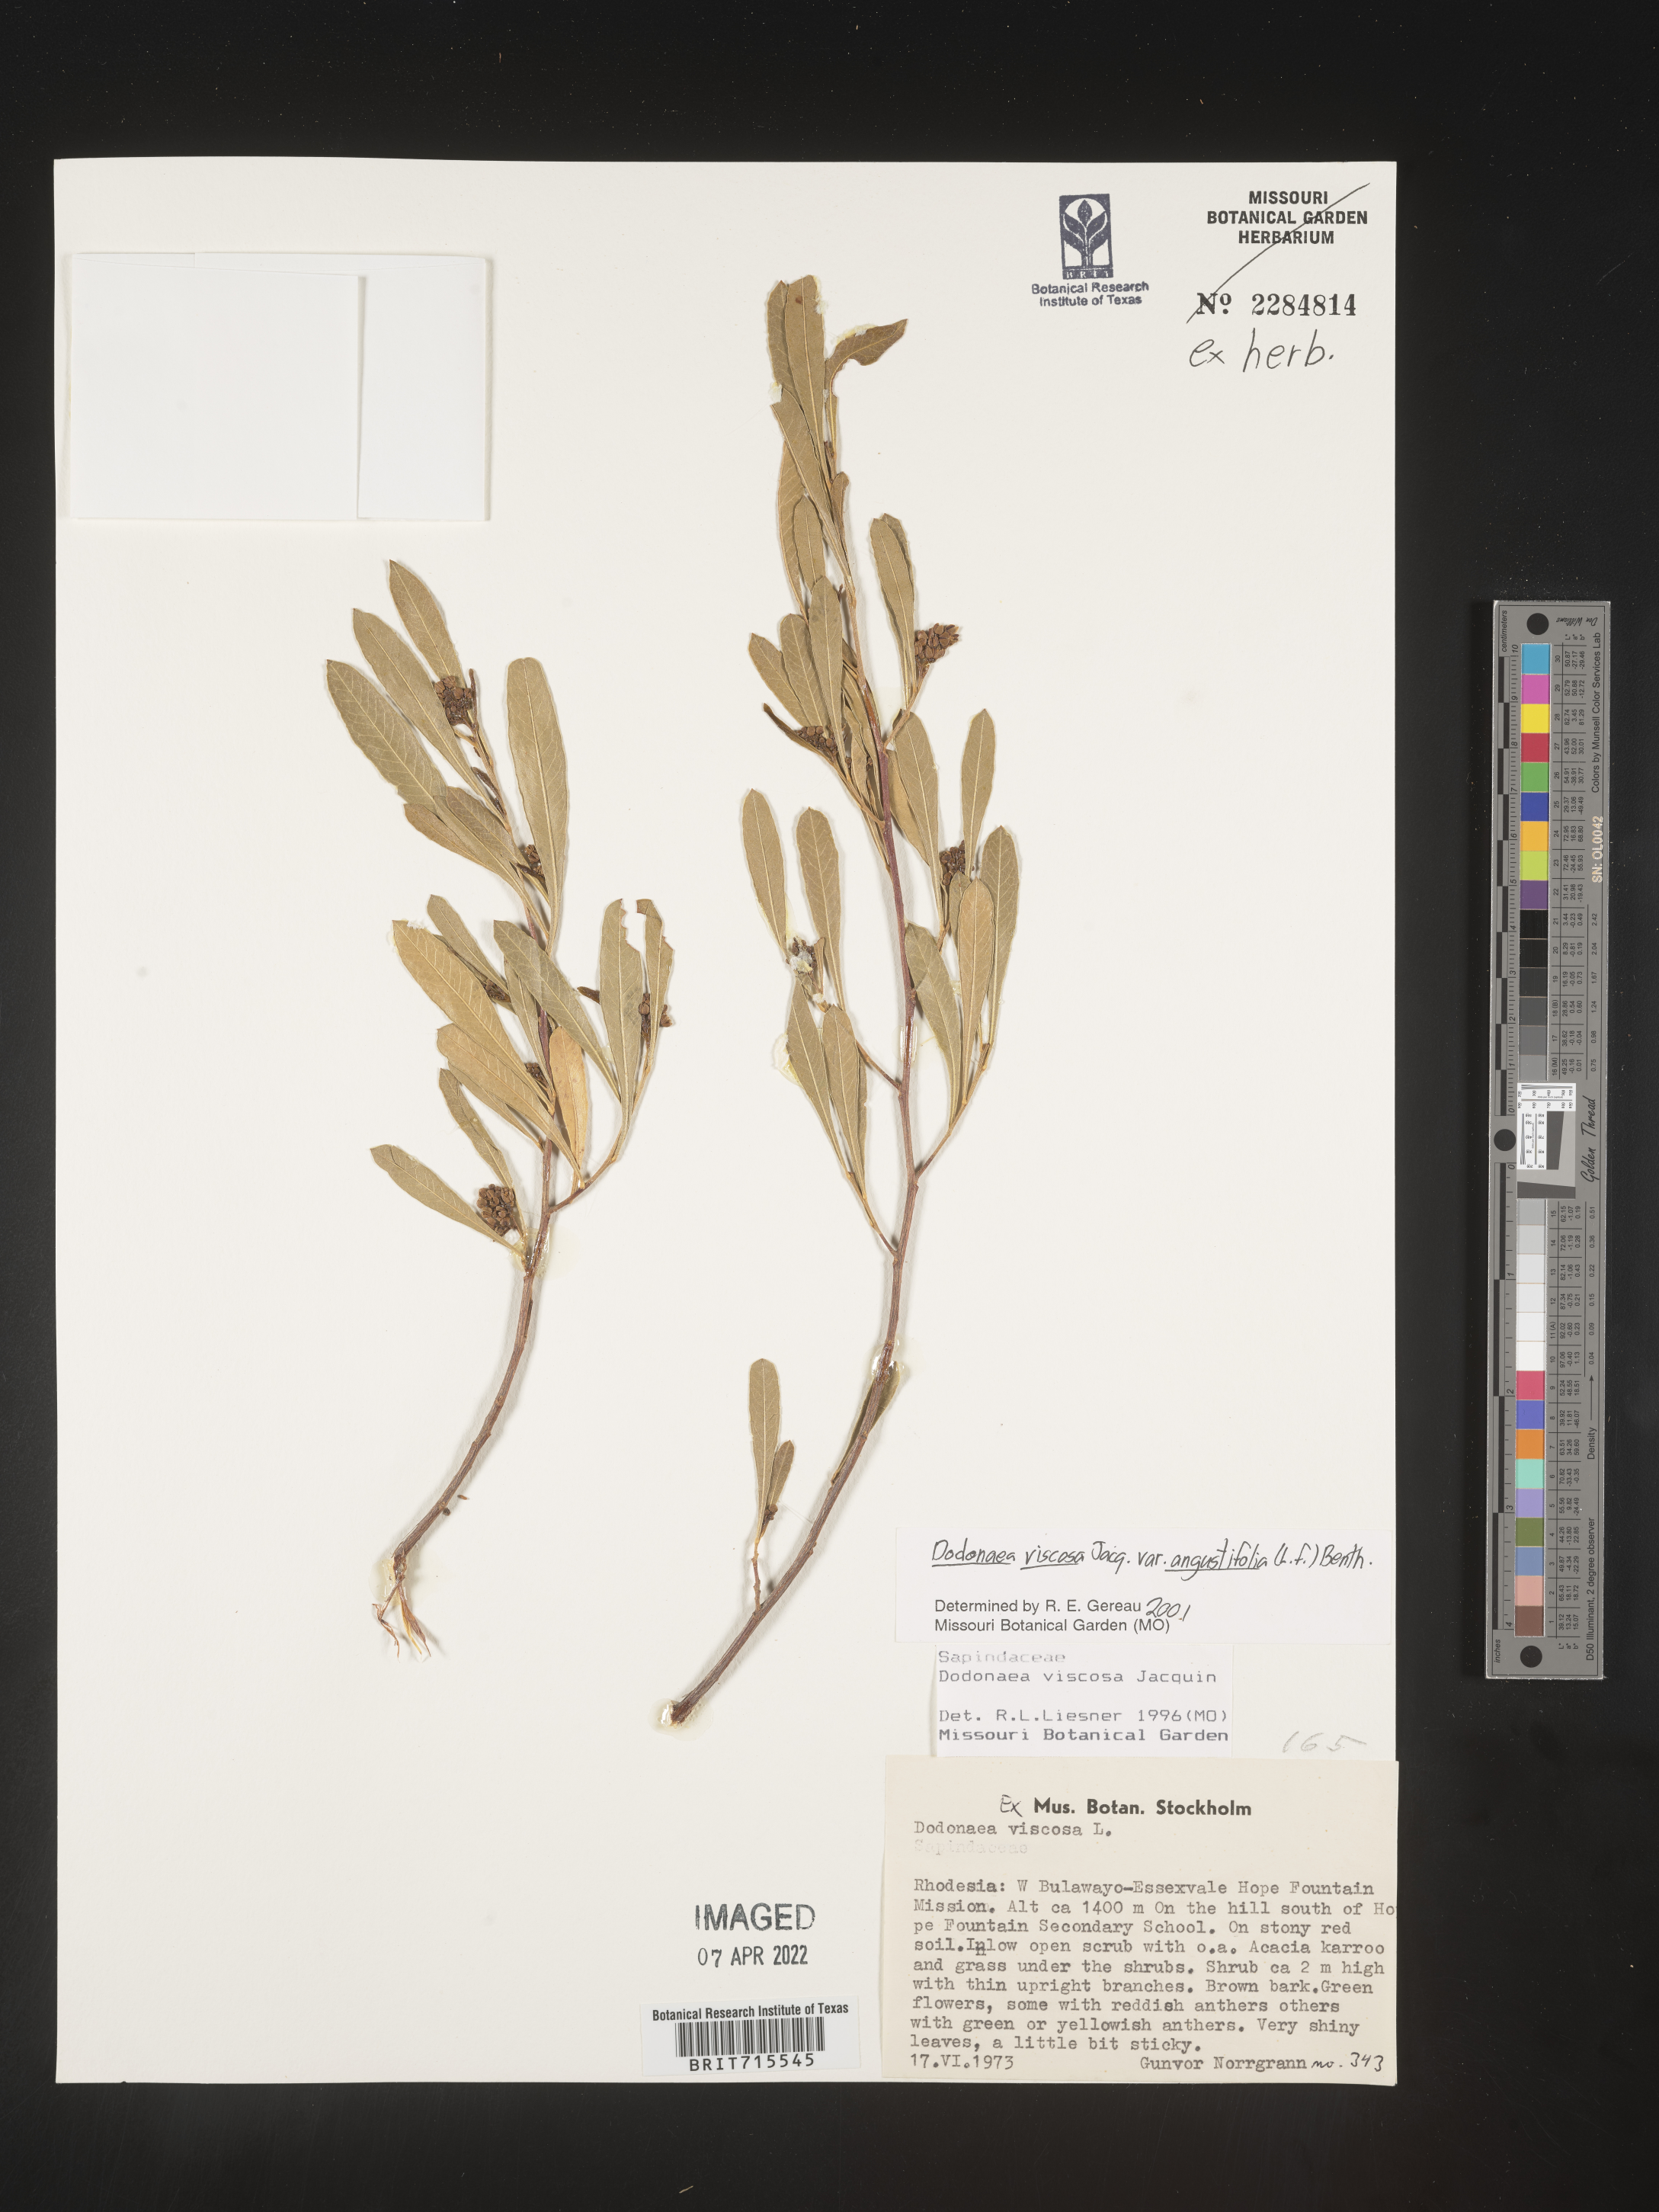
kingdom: Plantae
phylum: Tracheophyta
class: Magnoliopsida
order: Sapindales
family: Sapindaceae
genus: Dodonaea
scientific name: Dodonaea viscosa
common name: Hopbush
